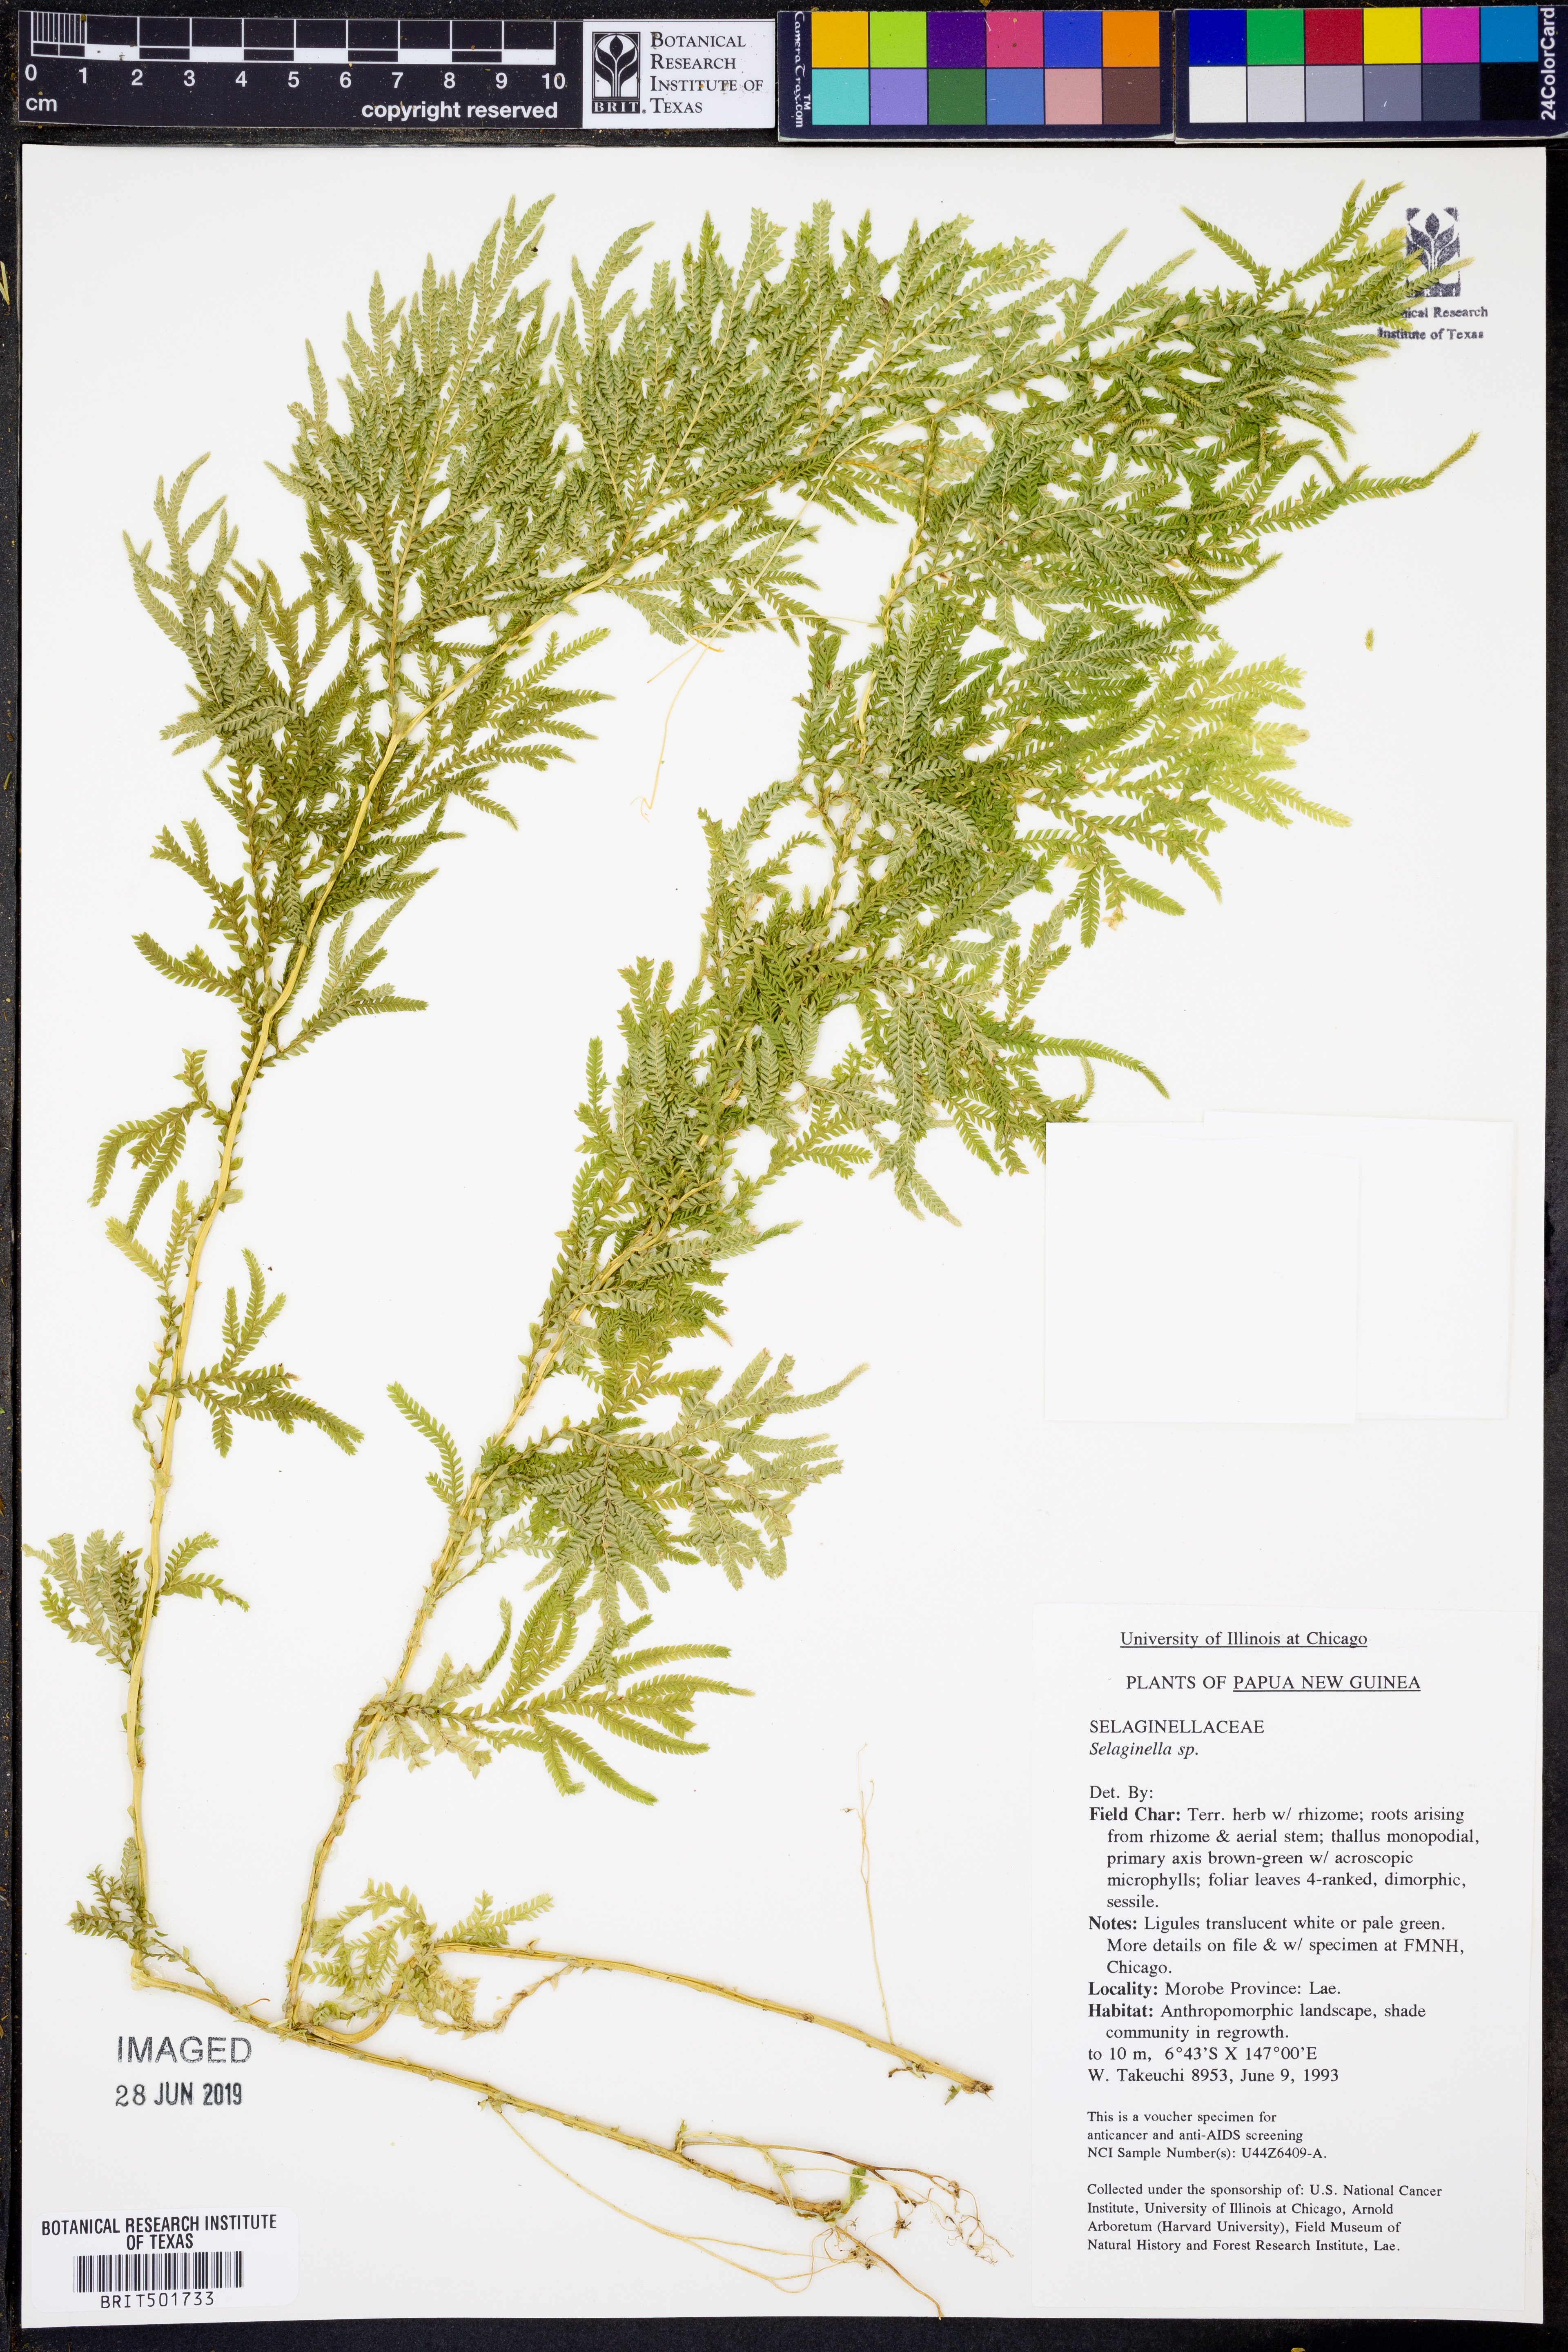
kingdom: Plantae
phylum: Tracheophyta
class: Lycopodiopsida
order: Selaginellales
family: Selaginellaceae
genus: Selaginella
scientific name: Selaginella
